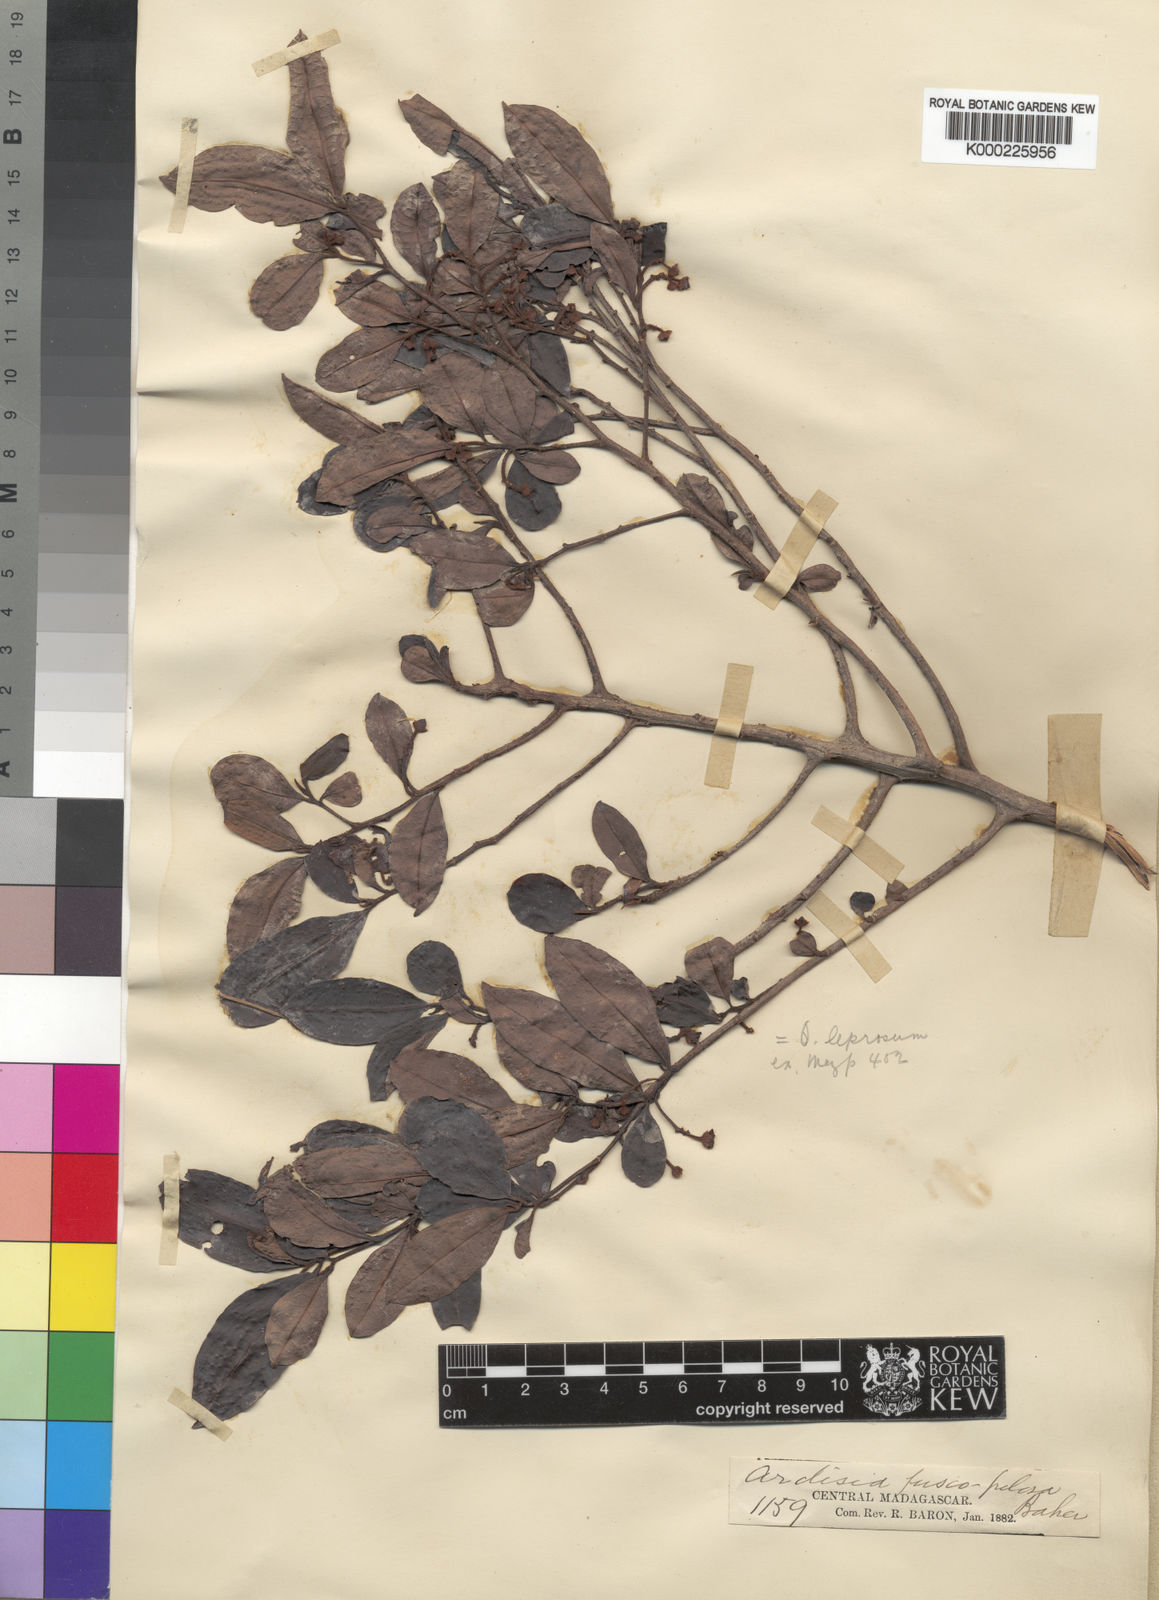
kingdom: Plantae
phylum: Tracheophyta
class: Magnoliopsida
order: Ericales
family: Primulaceae
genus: Oncostemum
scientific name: Oncostemum leprosum
